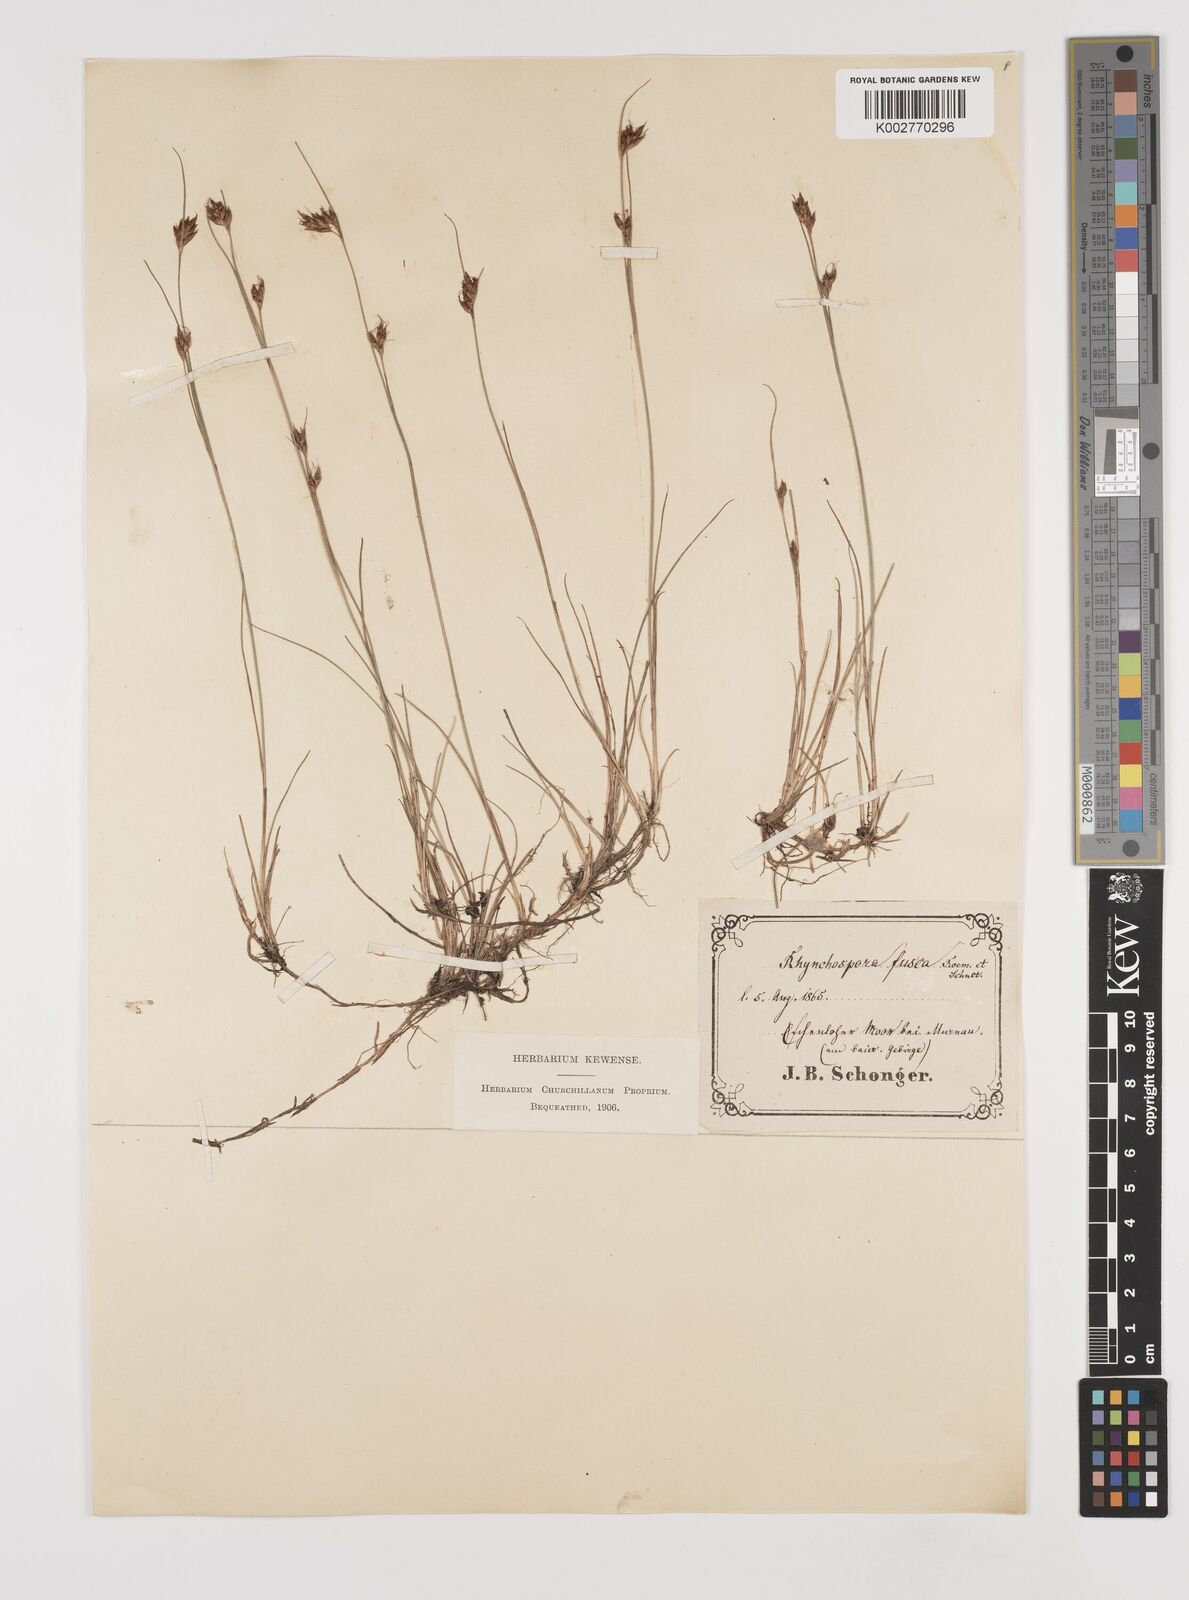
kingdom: Plantae
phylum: Tracheophyta
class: Liliopsida
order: Poales
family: Cyperaceae
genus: Rhynchospora
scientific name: Rhynchospora fusca
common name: Brown beak-sedge
